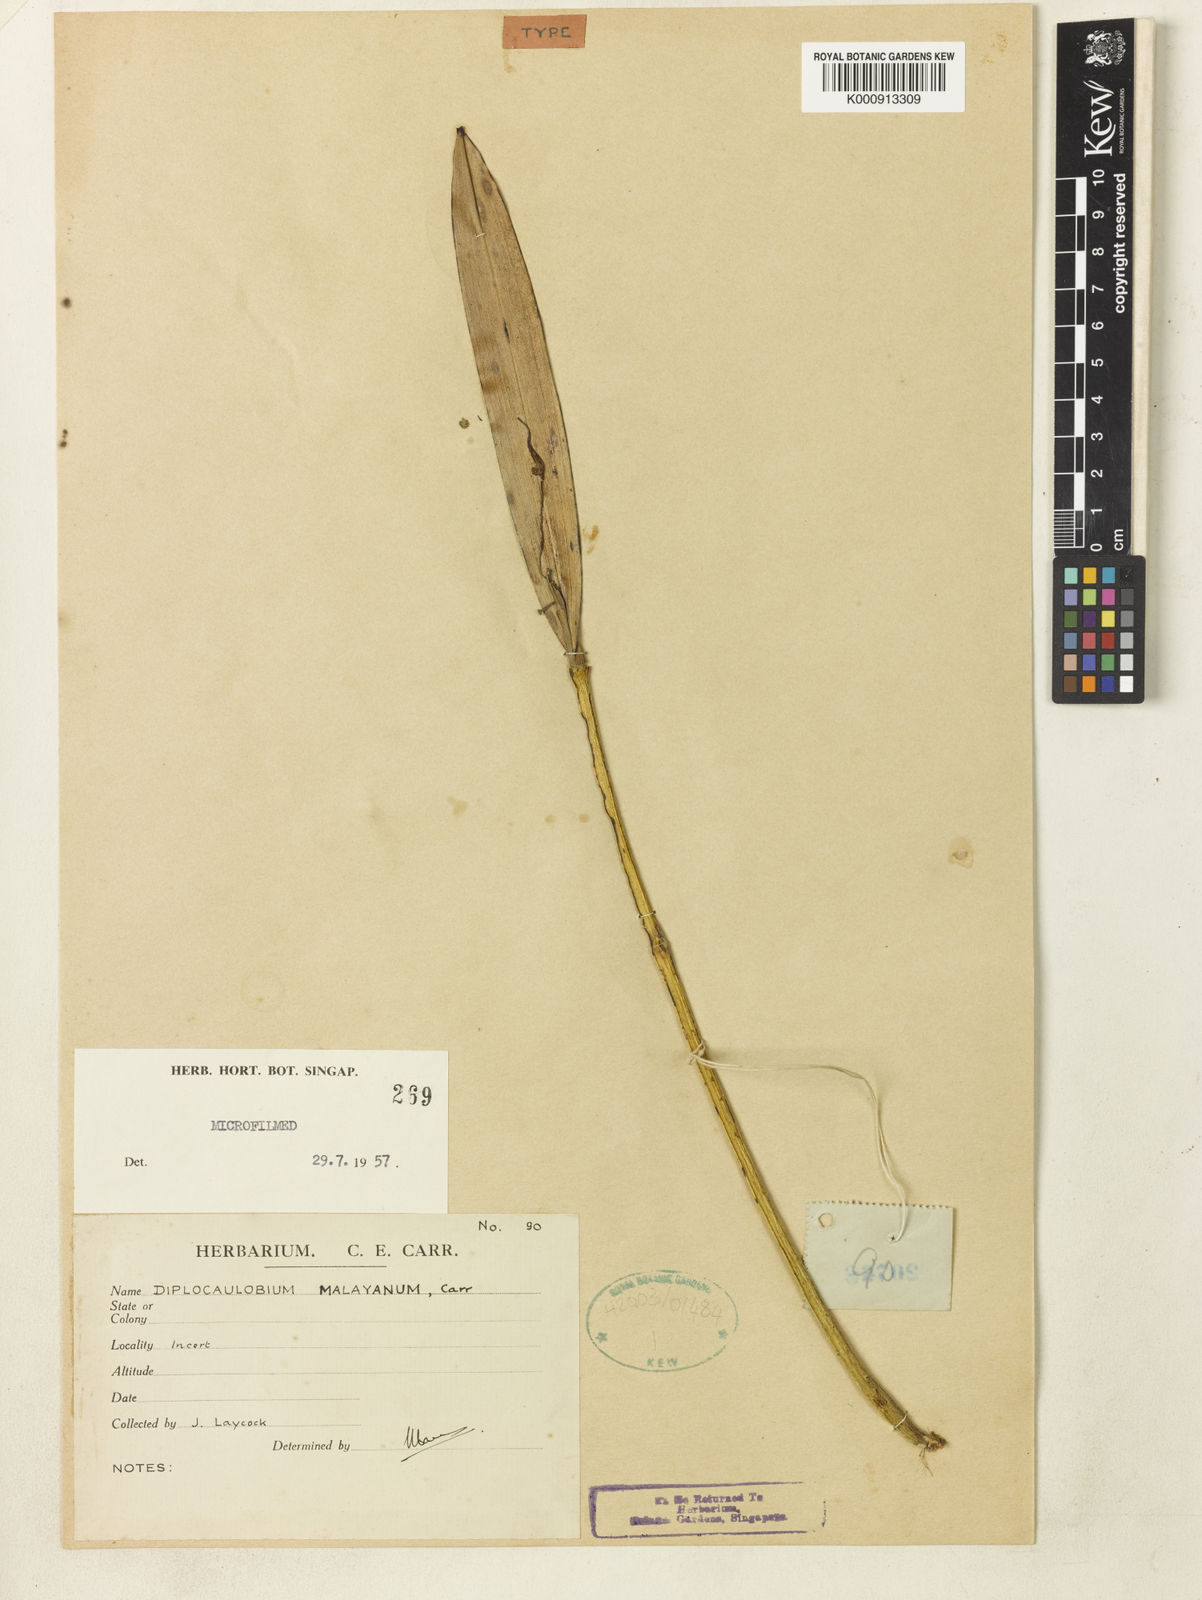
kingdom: Plantae
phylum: Tracheophyta
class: Liliopsida
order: Asparagales
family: Orchidaceae
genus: Dendrobium
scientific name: Dendrobium longicolle
